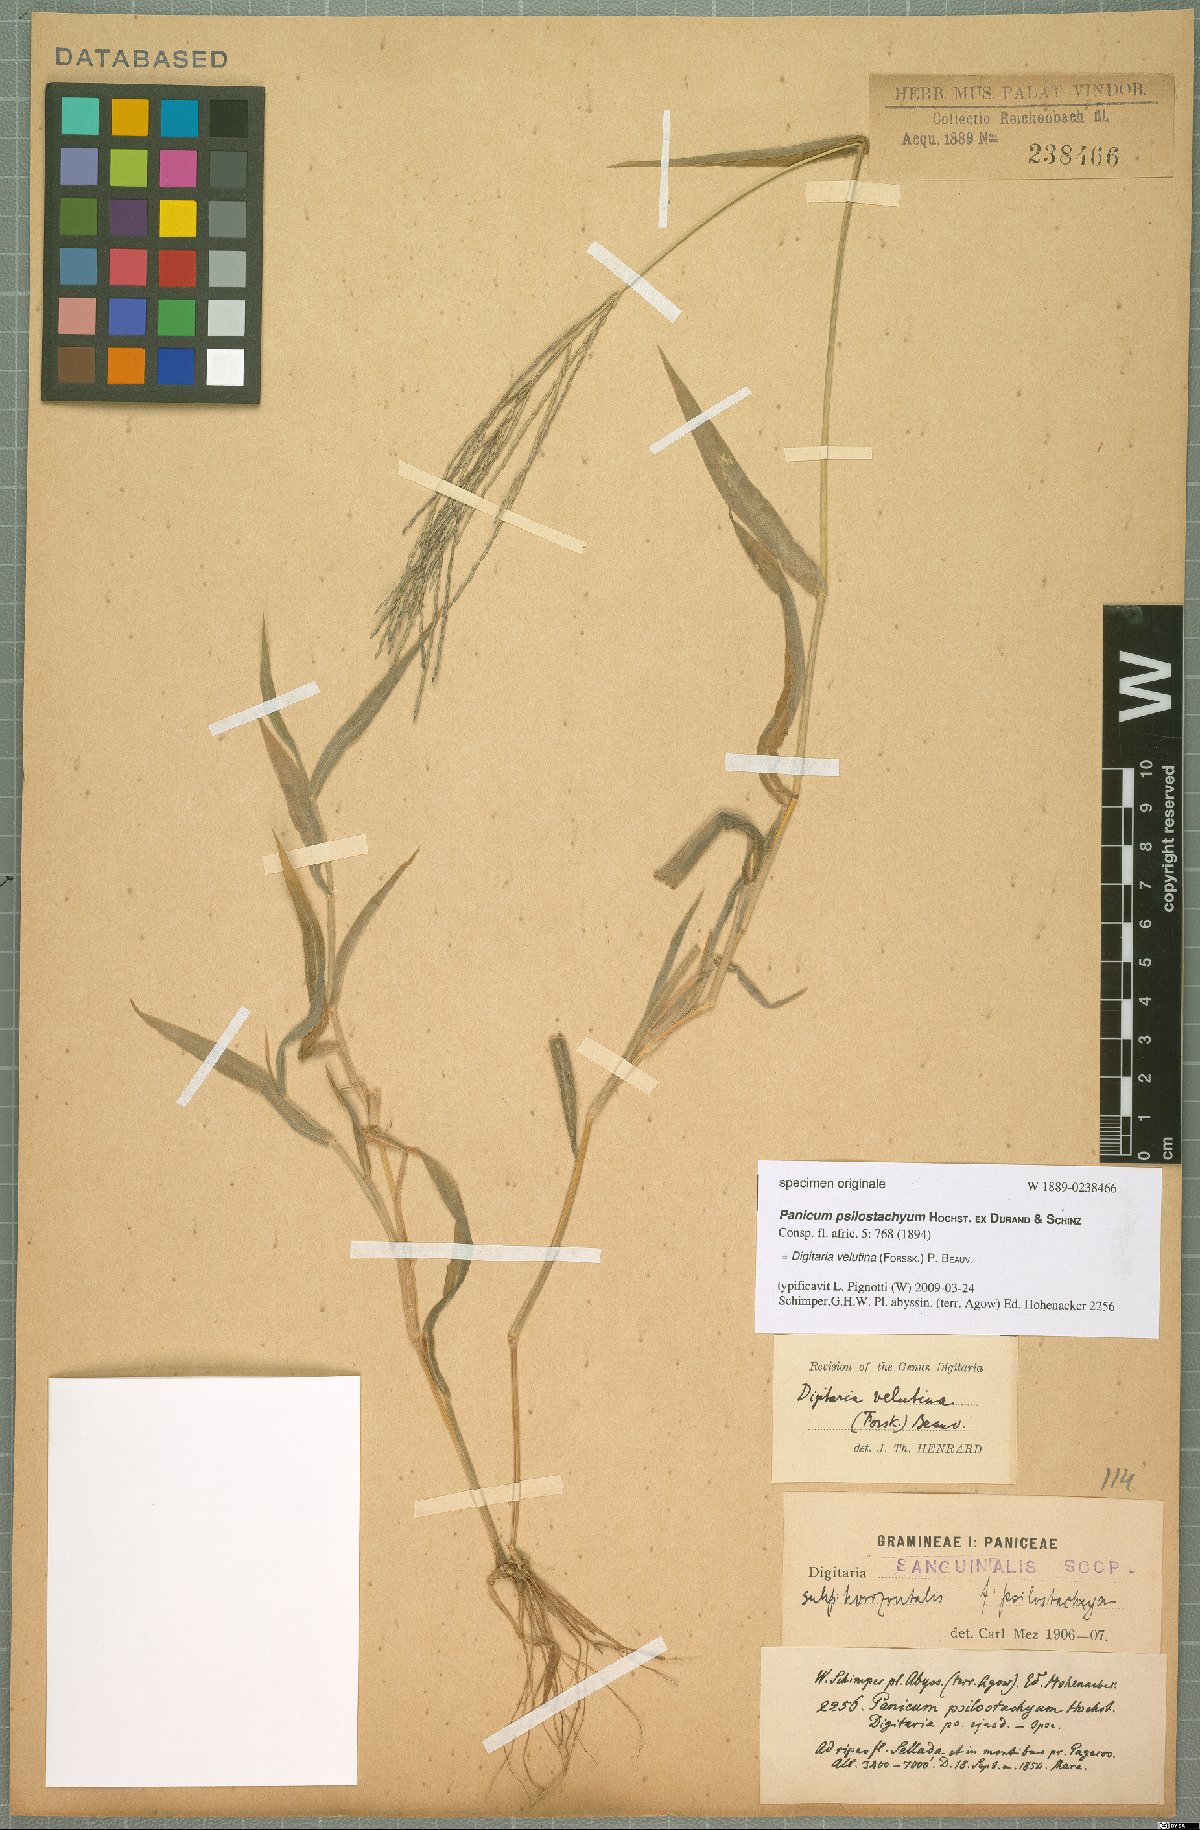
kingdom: Plantae
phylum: Tracheophyta
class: Liliopsida
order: Poales
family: Poaceae
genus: Digitaria
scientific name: Digitaria velutina
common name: Long-plume finger grass
